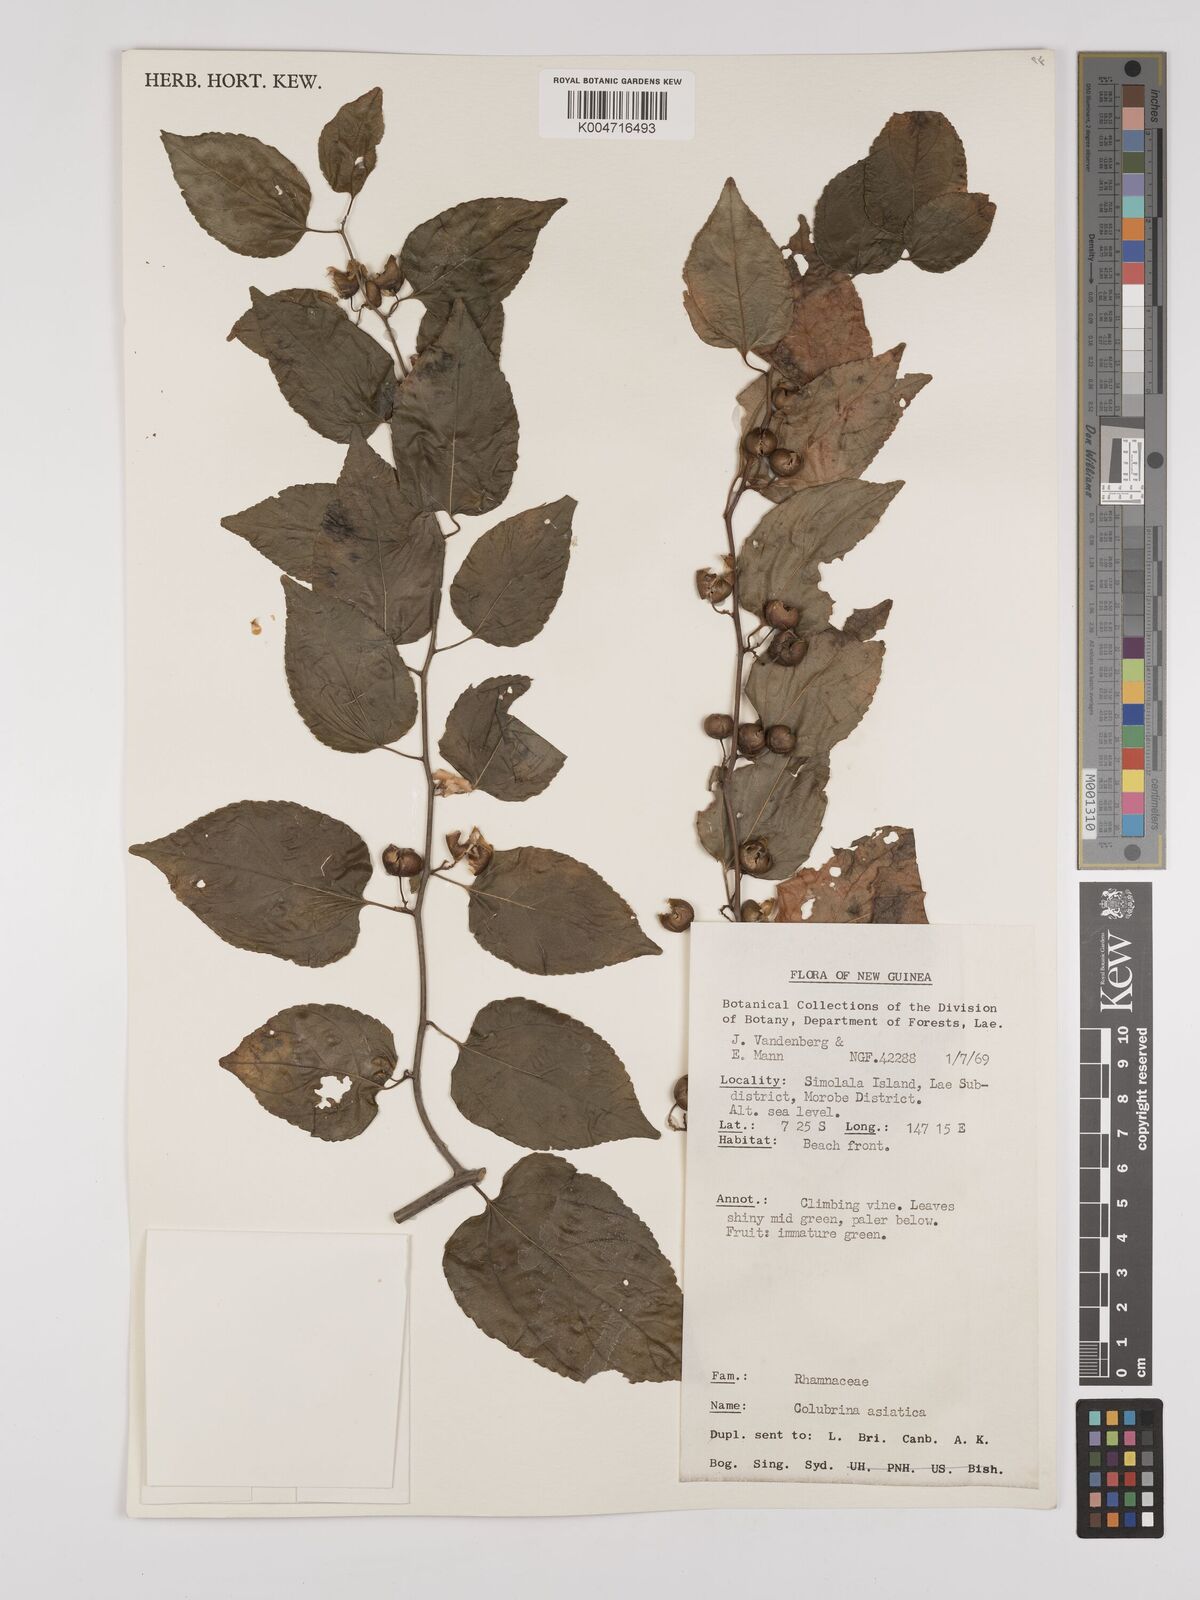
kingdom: Plantae
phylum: Tracheophyta
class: Magnoliopsida
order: Rosales
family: Rhamnaceae
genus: Colubrina
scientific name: Colubrina asiatica
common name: Asian nakedwood
